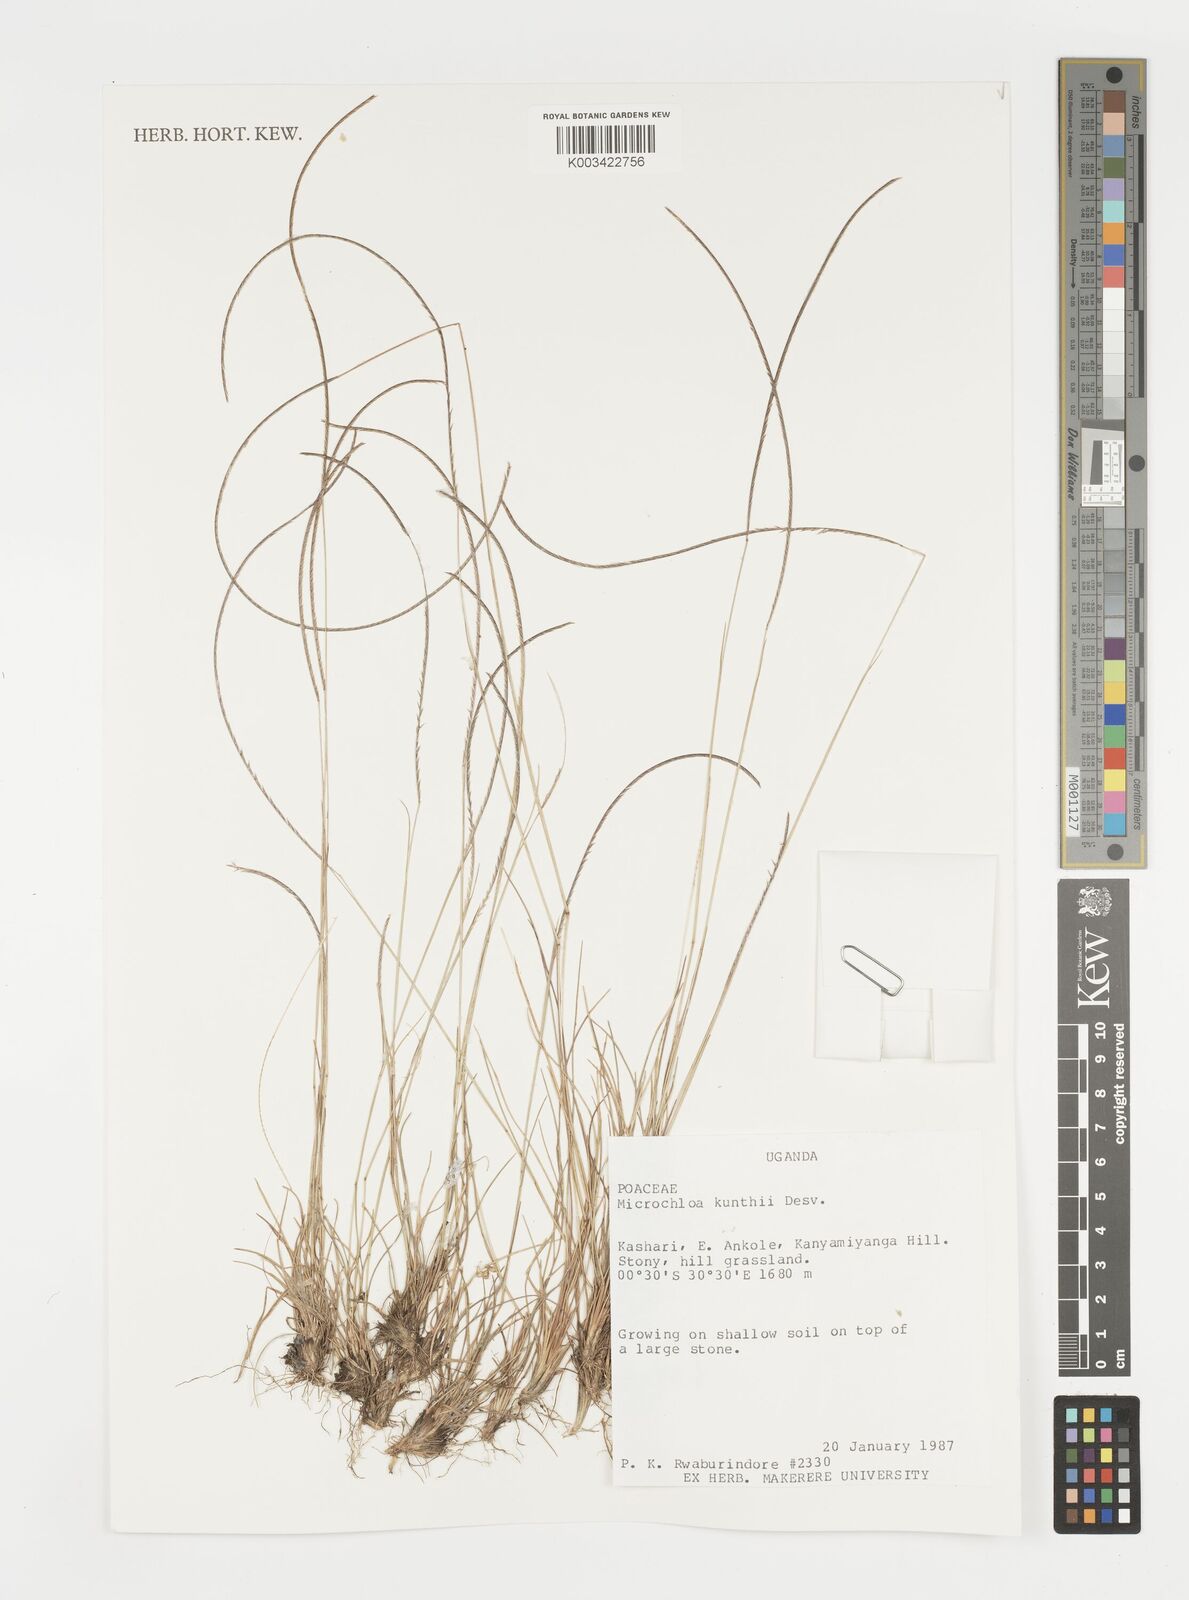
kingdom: Plantae
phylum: Tracheophyta
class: Liliopsida
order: Poales
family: Poaceae
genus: Microchloa
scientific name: Microchloa kunthii
